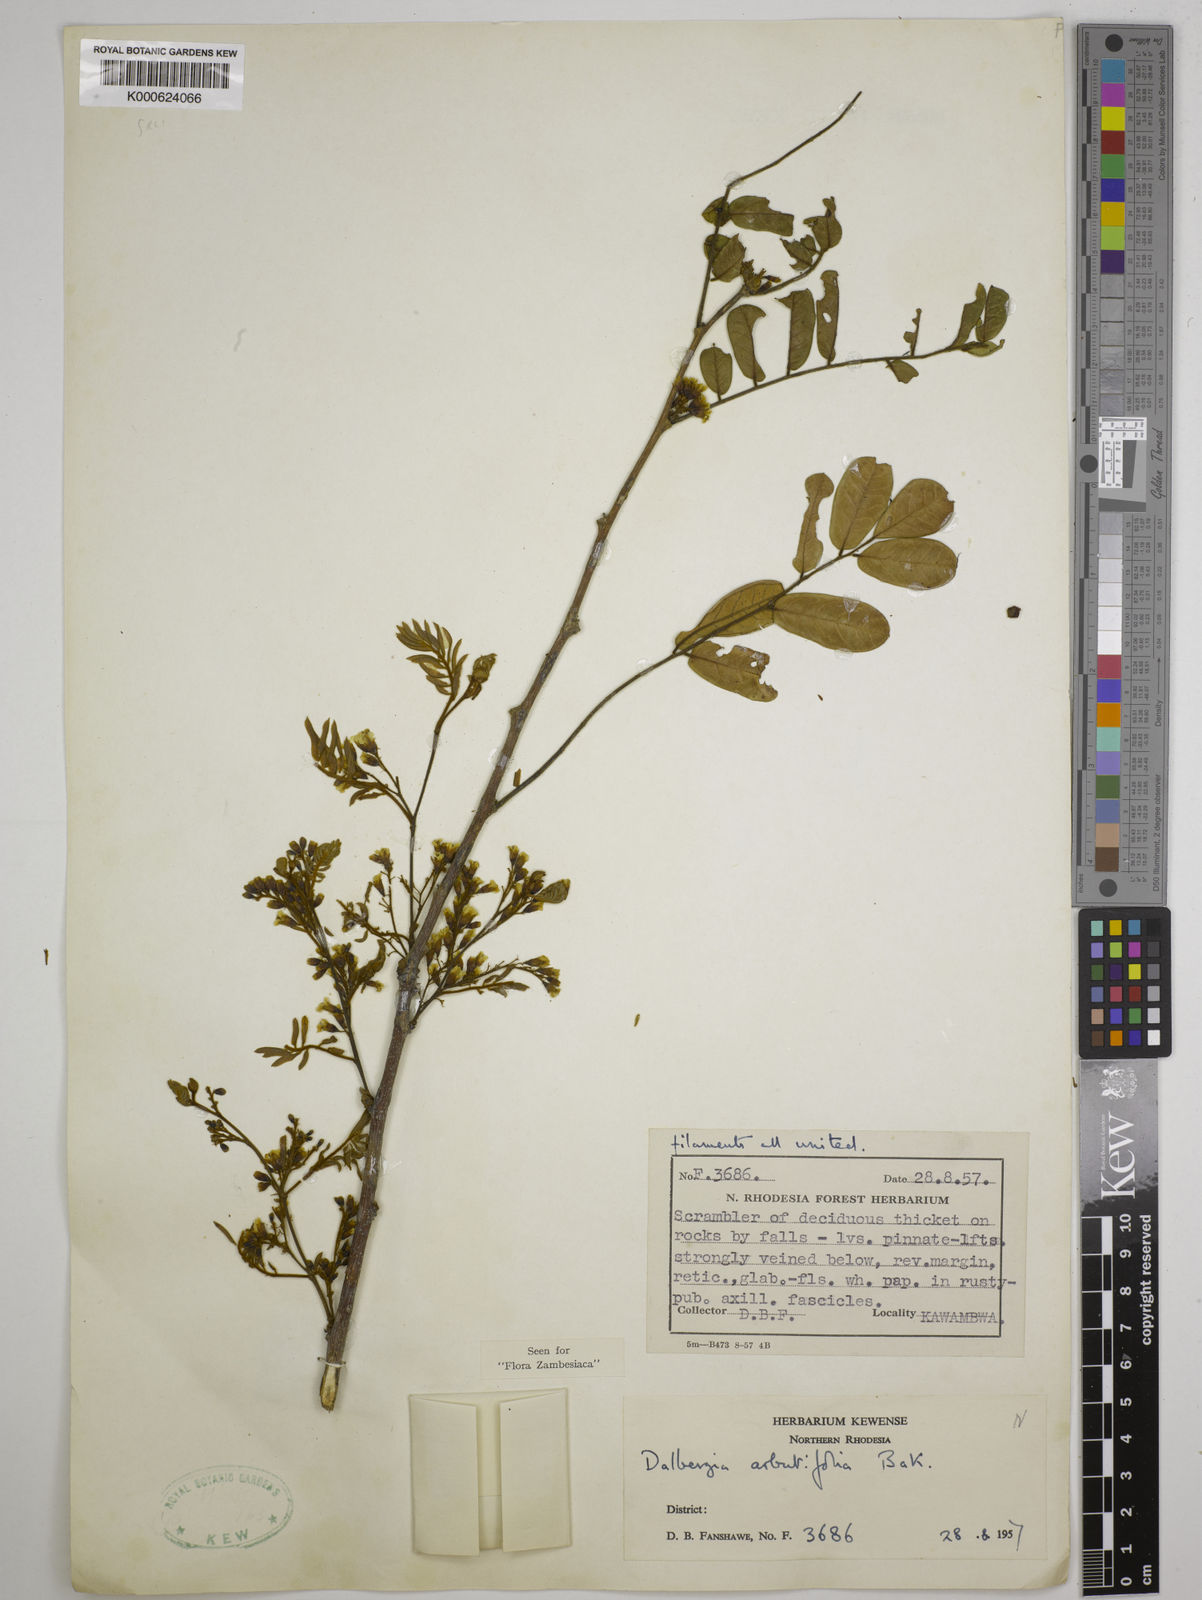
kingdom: Plantae
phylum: Tracheophyta
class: Magnoliopsida
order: Fabales
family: Fabaceae
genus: Dalbergia
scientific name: Dalbergia arbutifolia
